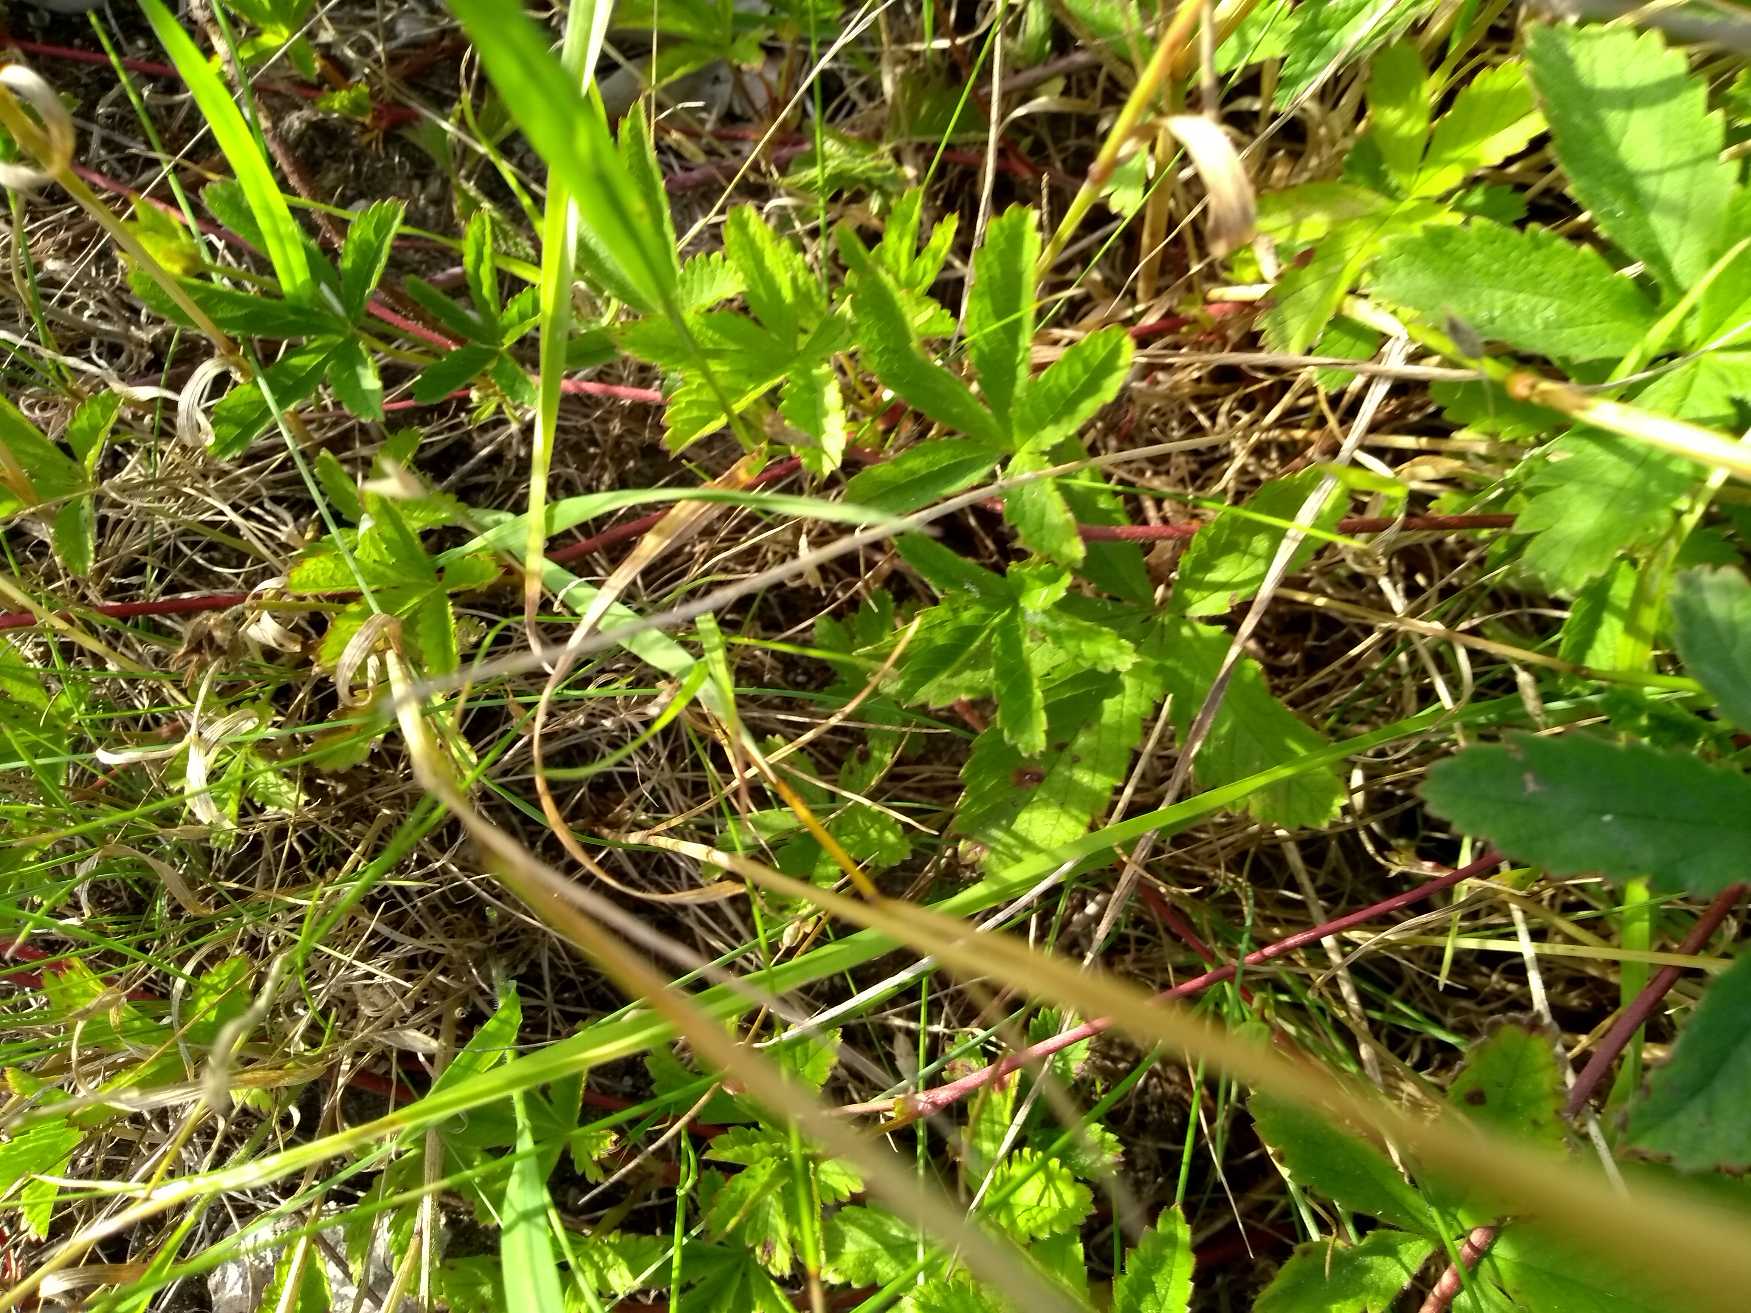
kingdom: Plantae
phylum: Tracheophyta
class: Magnoliopsida
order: Rosales
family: Rosaceae
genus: Potentilla
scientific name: Potentilla reptans
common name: Krybende potentil
